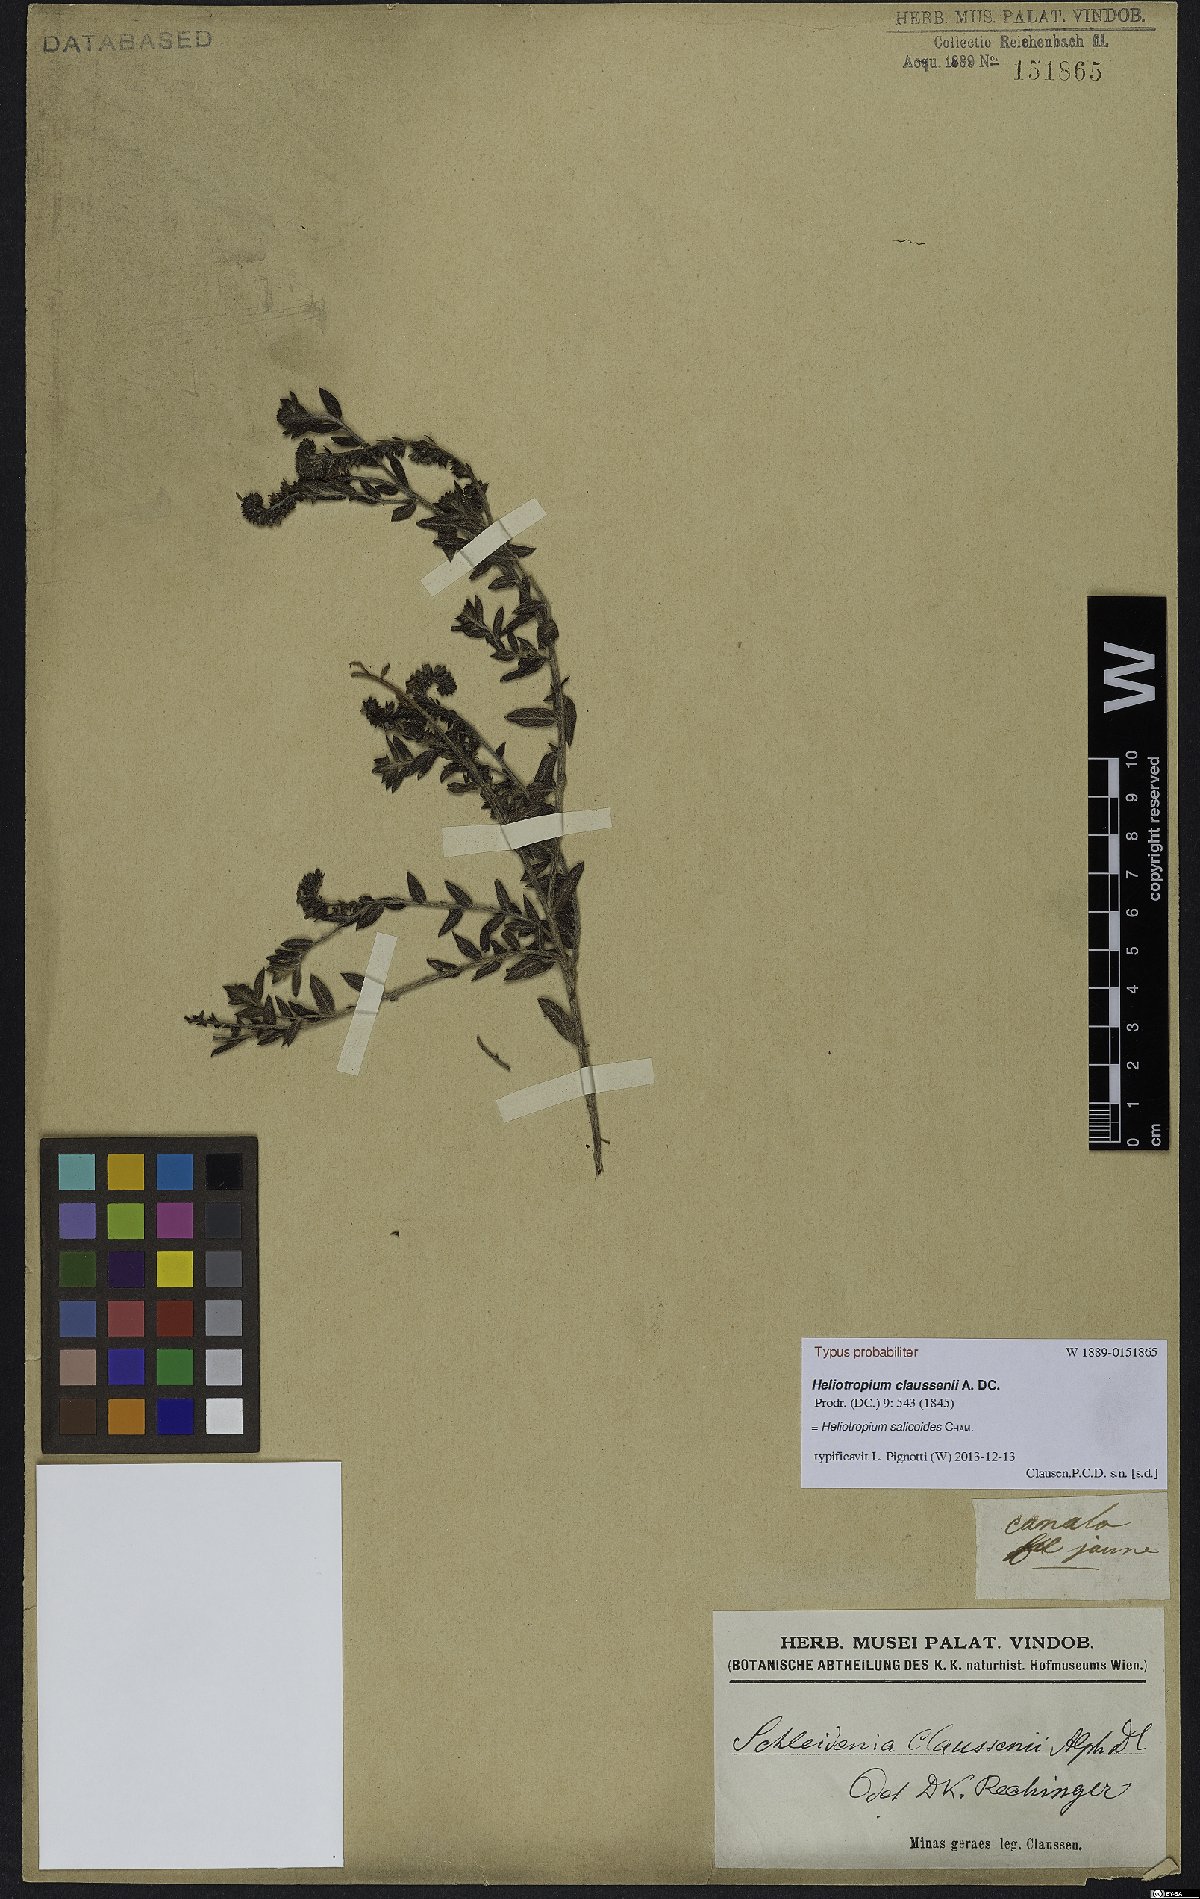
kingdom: Plantae
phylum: Tracheophyta
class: Magnoliopsida
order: Boraginales
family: Heliotropiaceae
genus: Euploca
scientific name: Euploca salicoides
